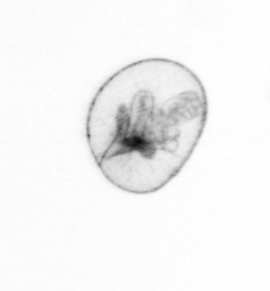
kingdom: Chromista
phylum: Myzozoa
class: Dinophyceae
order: Noctilucales
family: Noctilucaceae
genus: Noctiluca
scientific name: Noctiluca scintillans
